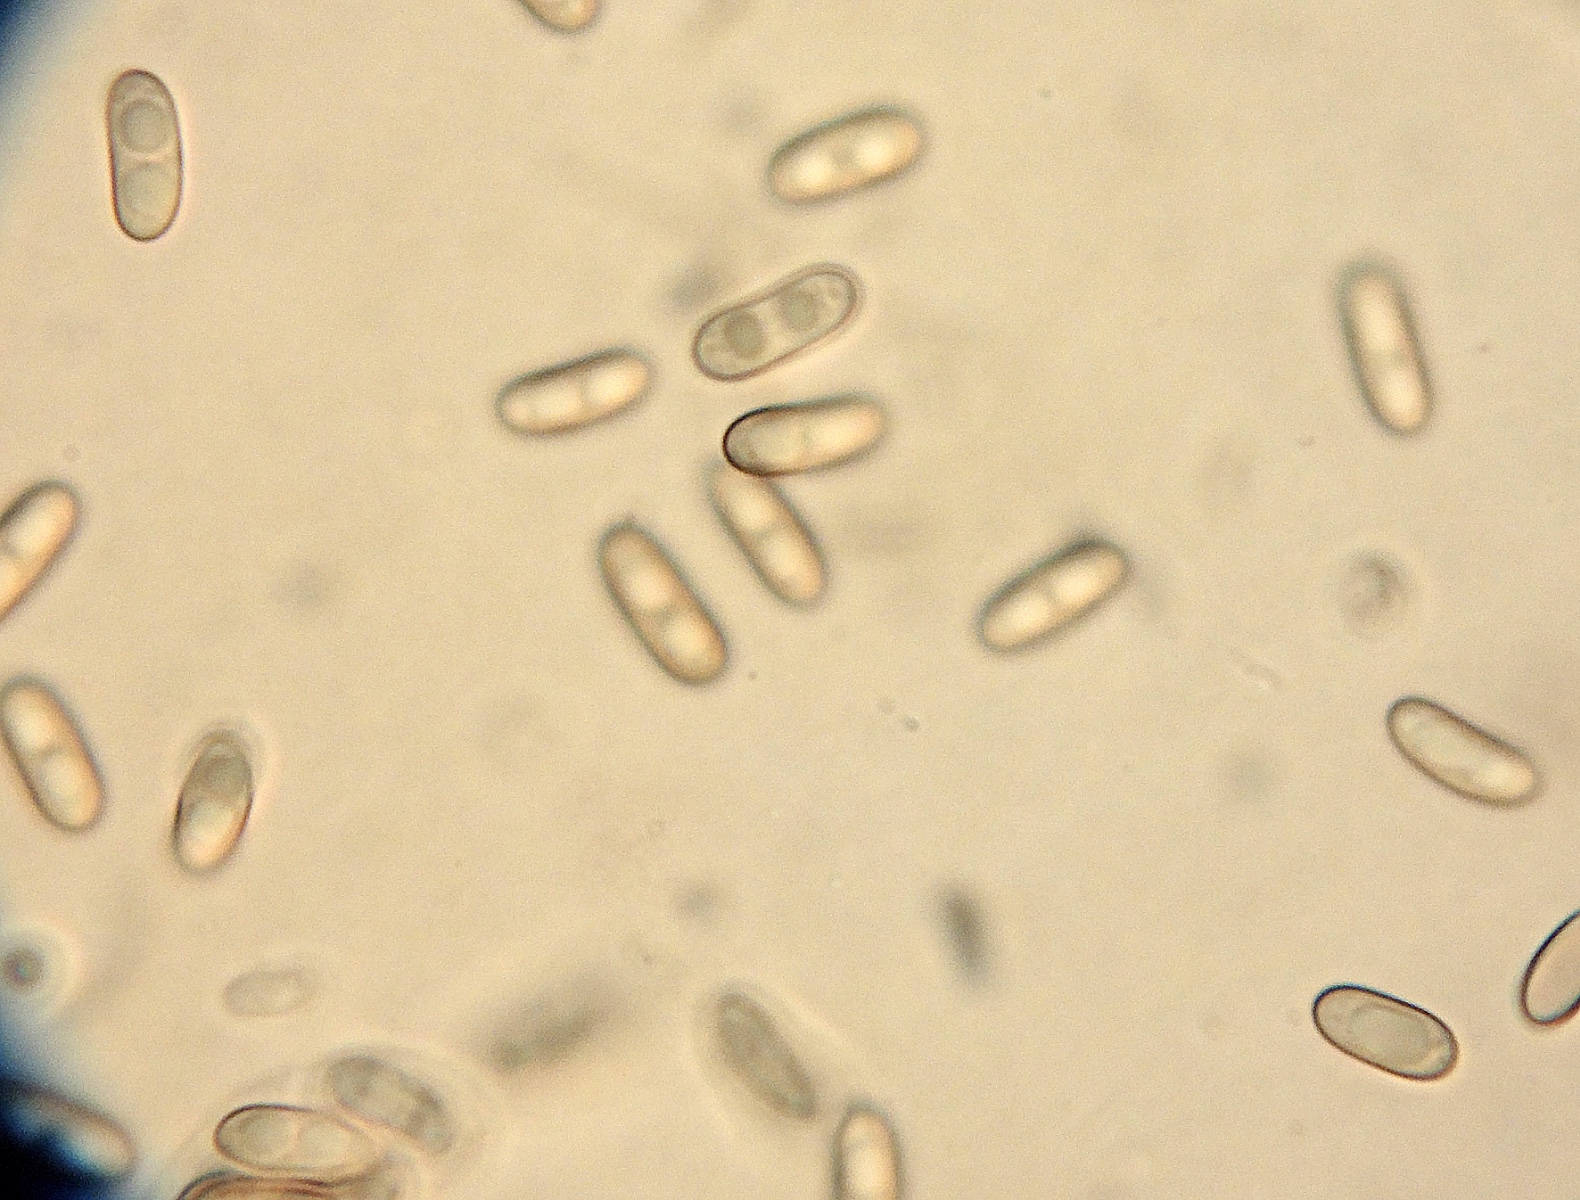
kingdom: Fungi
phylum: Ascomycota
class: Sordariomycetes
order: Coronophorales
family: Scortechiniaceae
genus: Tympanopsis
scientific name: Tympanopsis confertula
